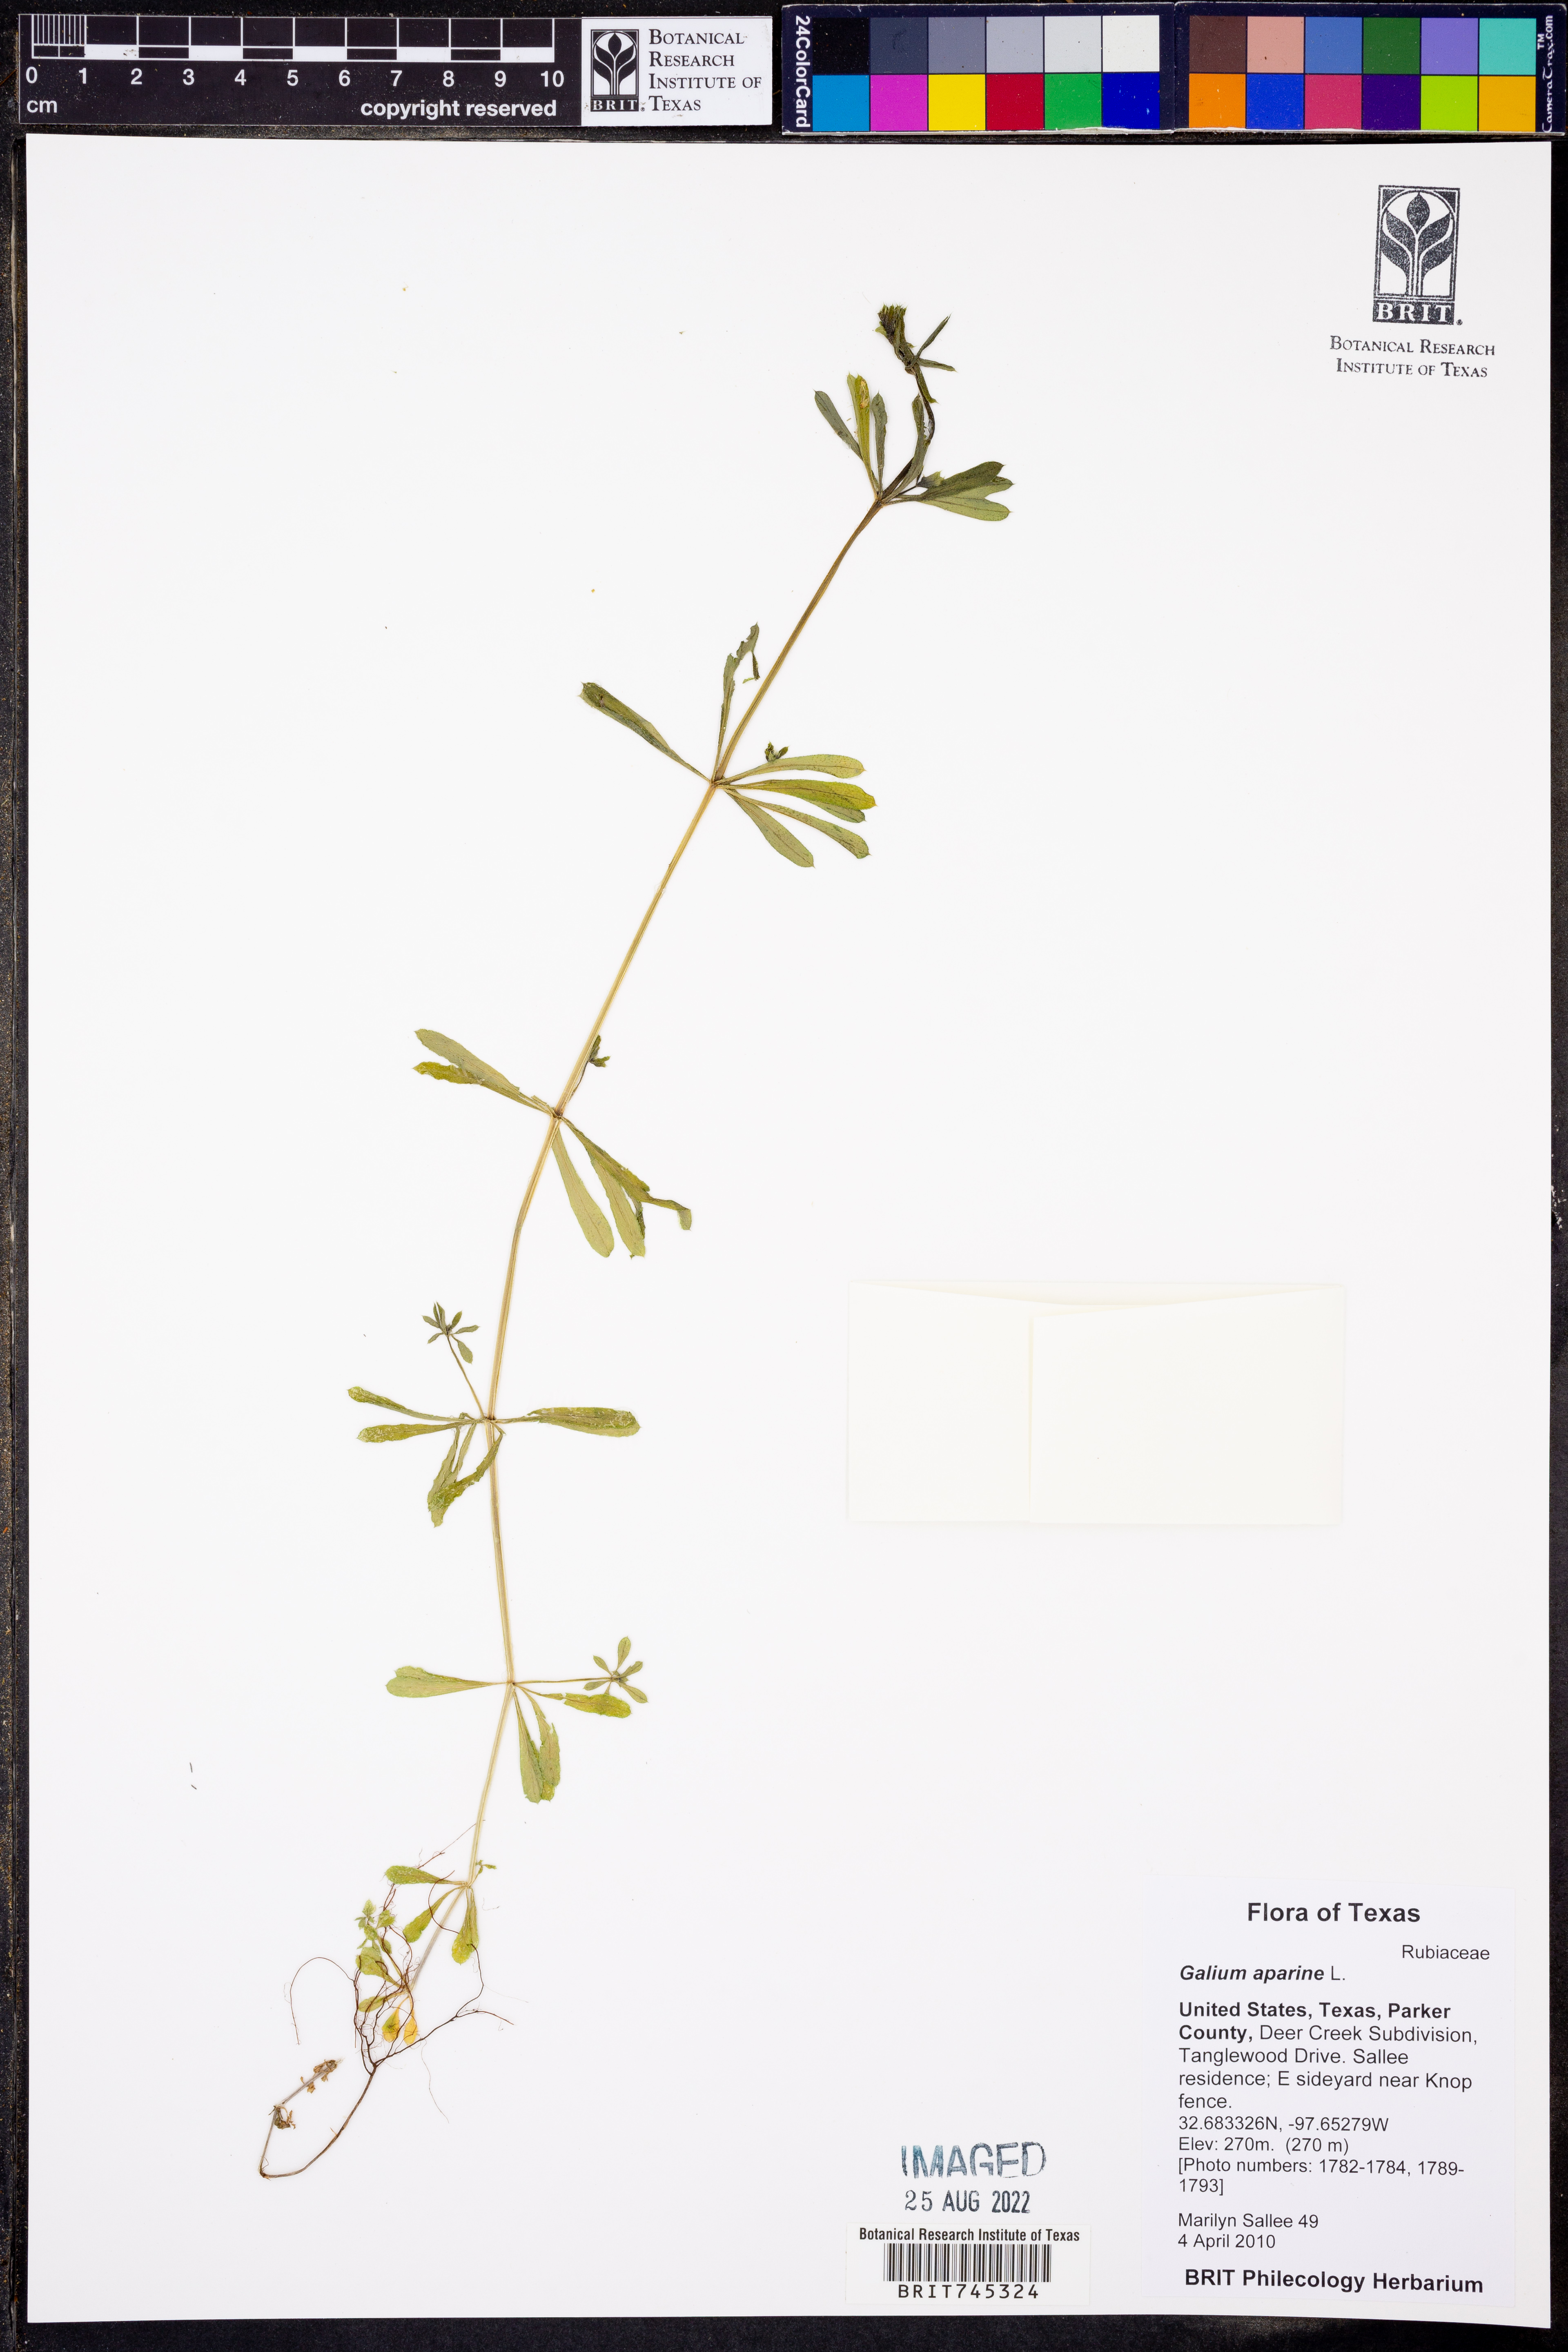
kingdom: Plantae
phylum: Tracheophyta
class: Magnoliopsida
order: Gentianales
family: Rubiaceae
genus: Galium
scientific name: Galium aparine
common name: Cleavers
